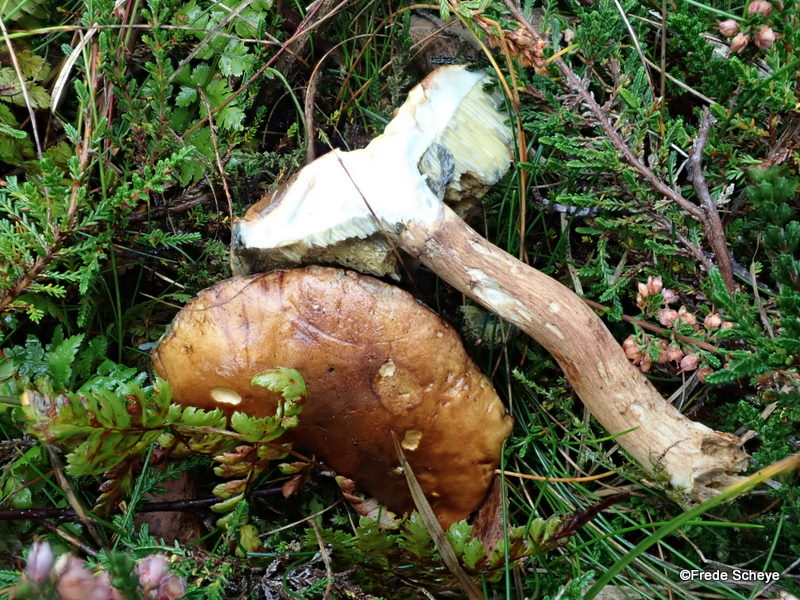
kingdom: Fungi
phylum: Basidiomycota
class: Agaricomycetes
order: Boletales
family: Boletaceae
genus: Imleria
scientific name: Imleria badia
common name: brunstokket rørhat
